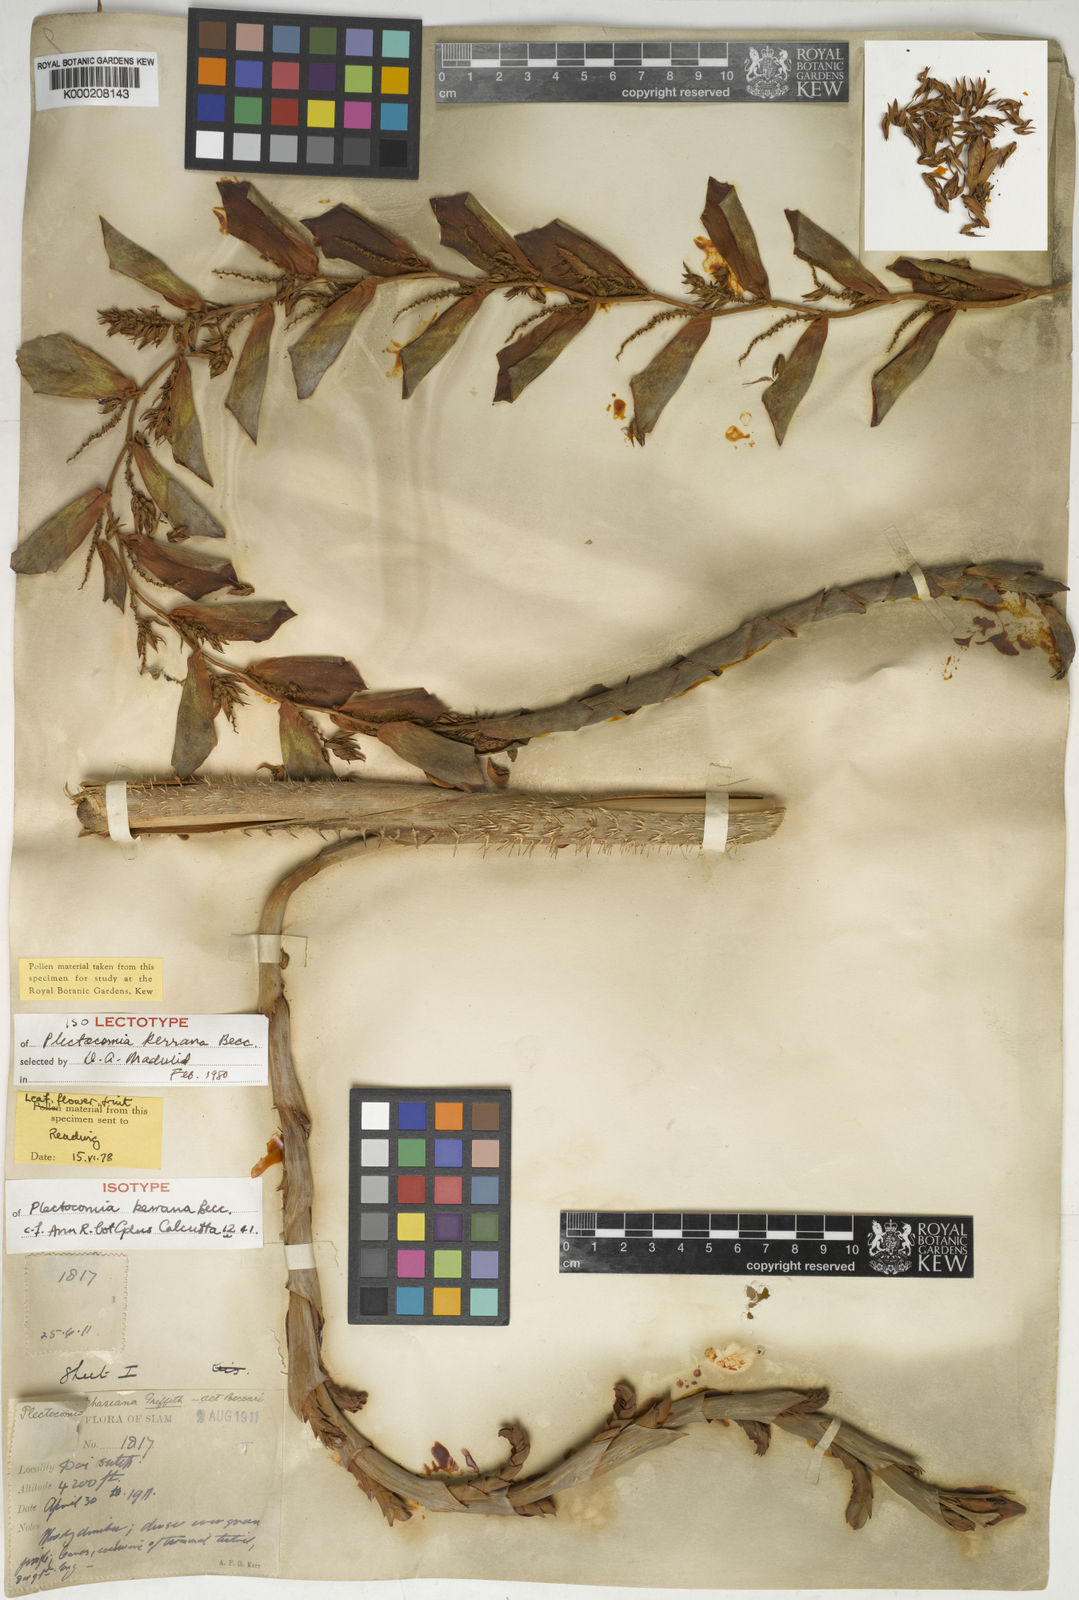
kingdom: Plantae
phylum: Tracheophyta
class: Liliopsida
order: Arecales
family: Arecaceae
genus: Plectocomia
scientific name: Plectocomia pierreana
